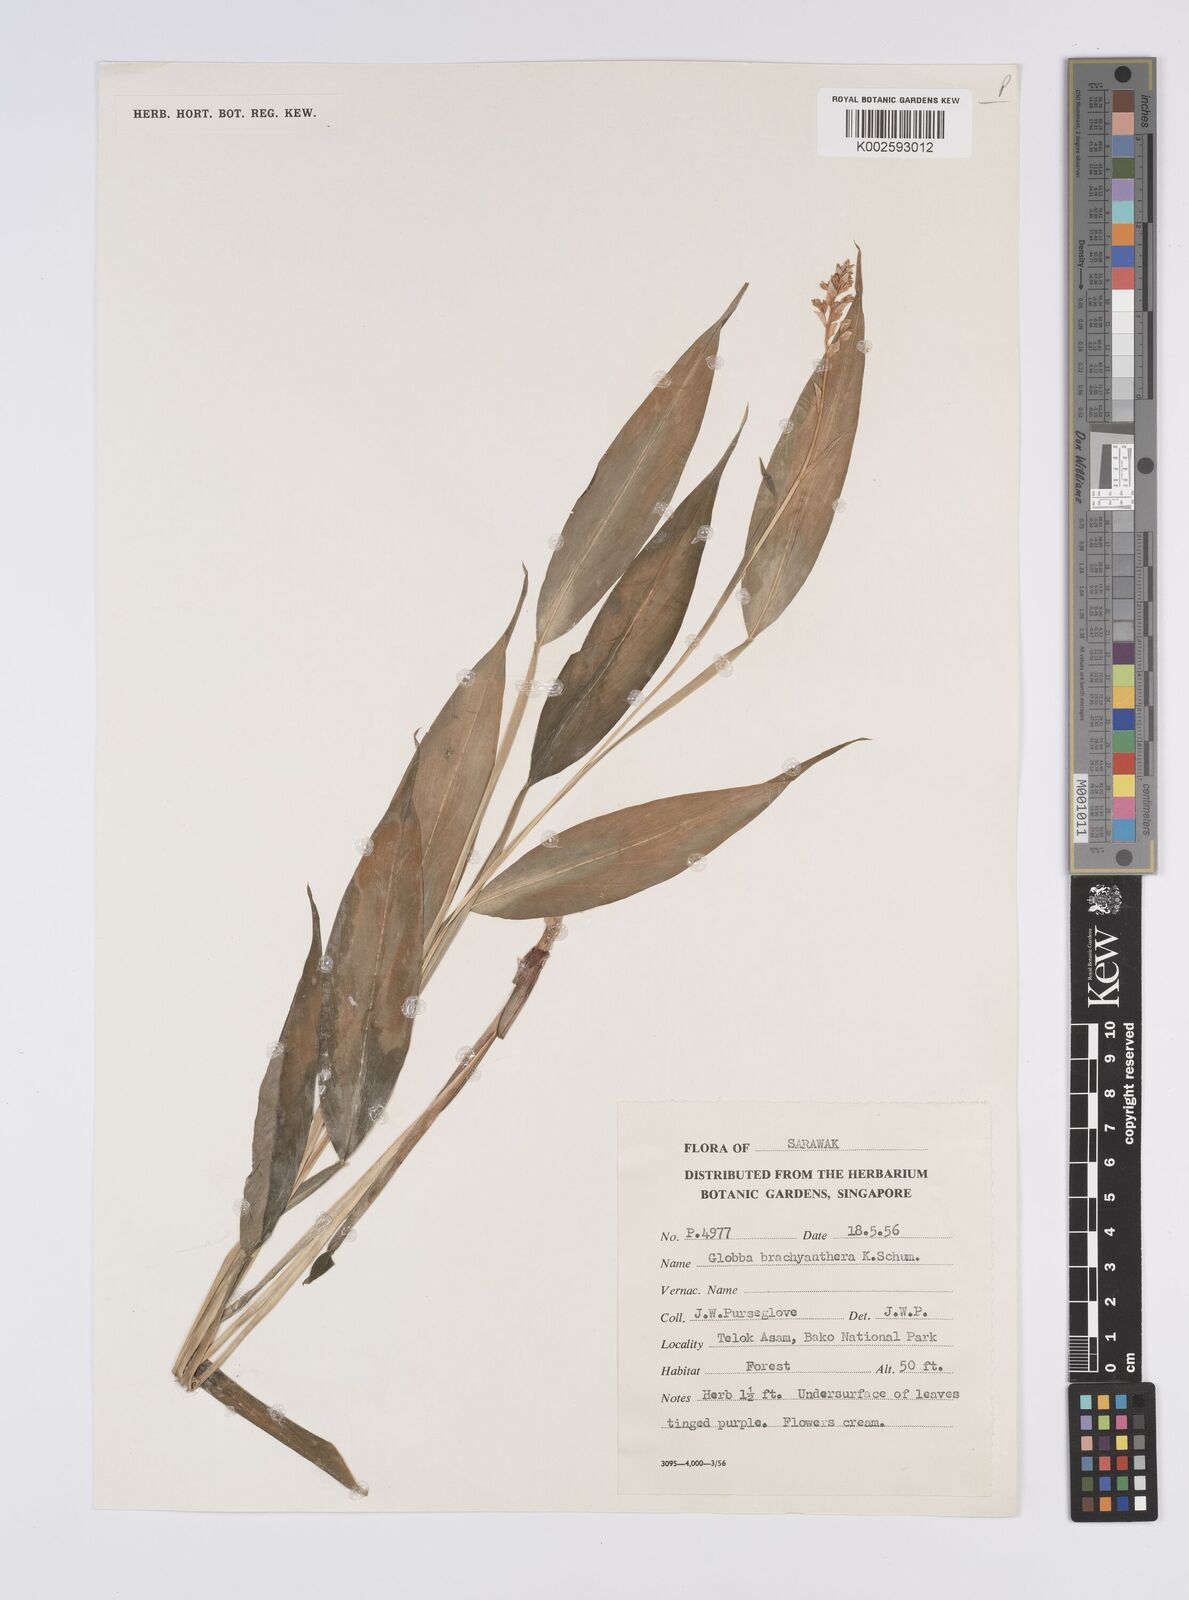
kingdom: Plantae
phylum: Tracheophyta
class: Liliopsida
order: Zingiberales
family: Zingiberaceae
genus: Globba
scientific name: Globba brachyanthera
